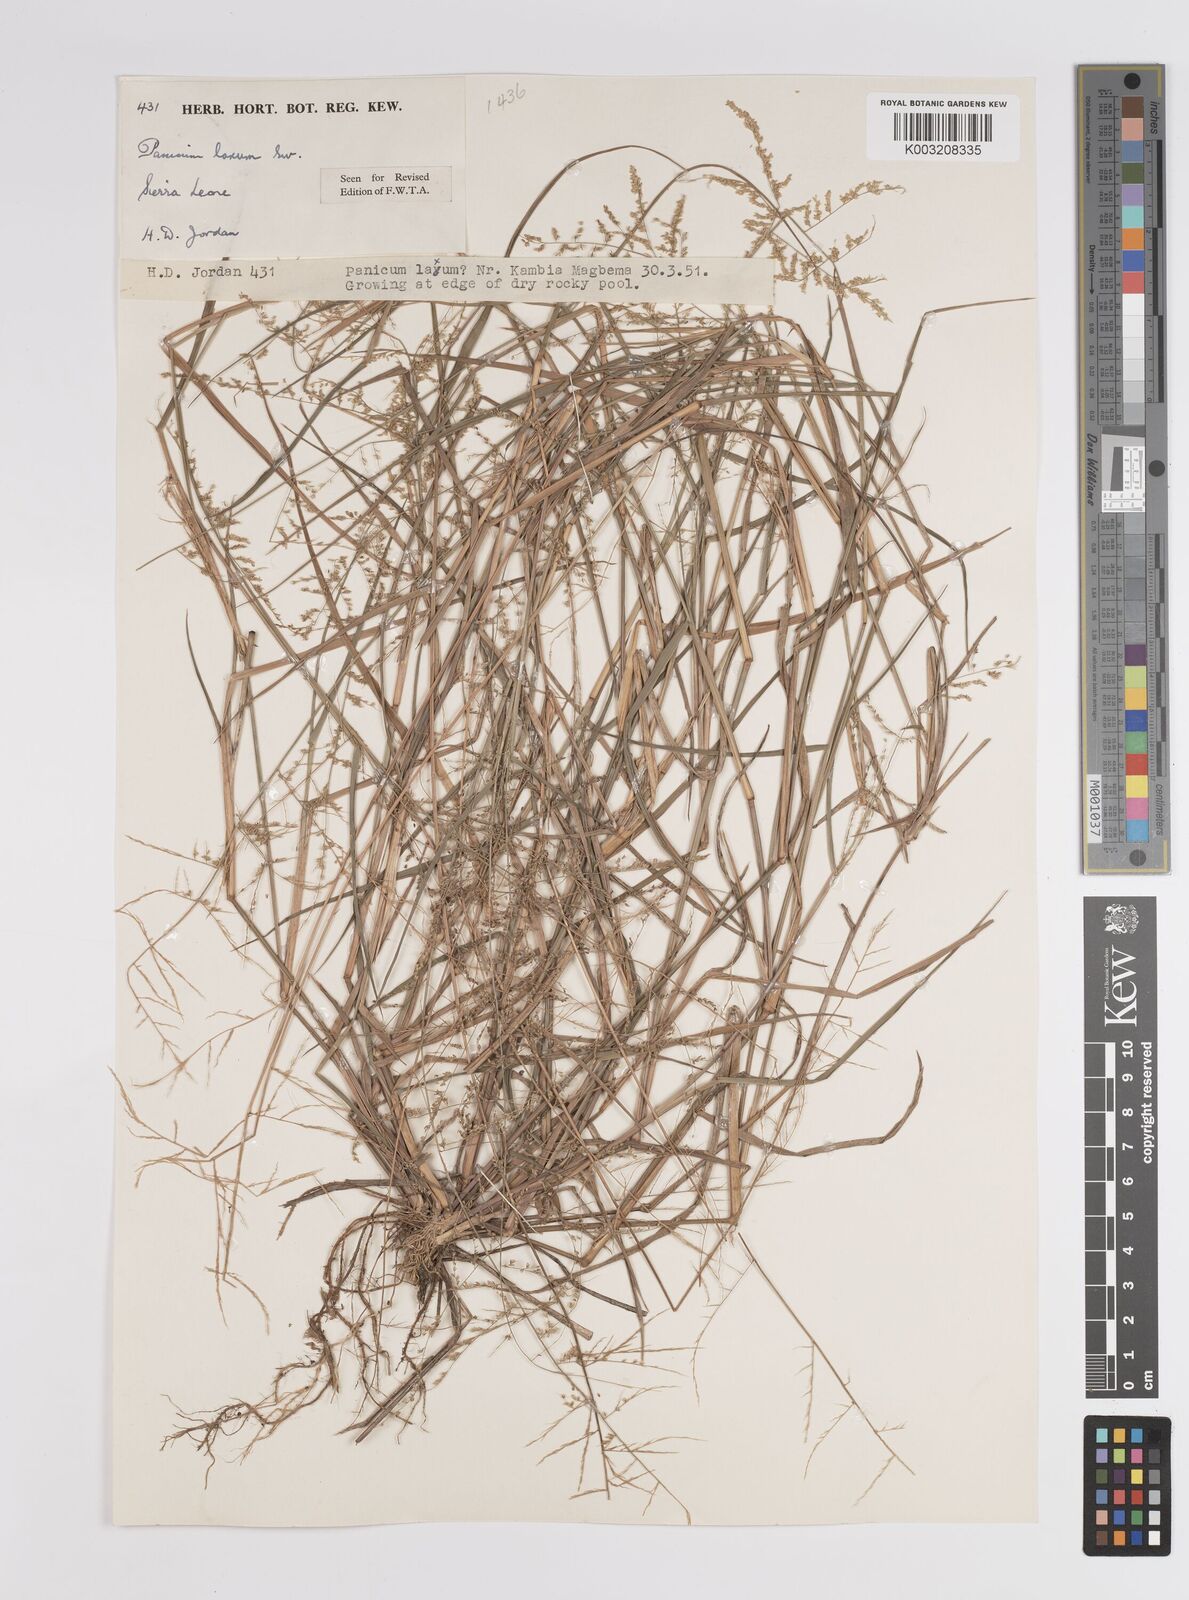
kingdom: Plantae
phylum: Tracheophyta
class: Liliopsida
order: Poales
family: Poaceae
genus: Steinchisma
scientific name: Steinchisma laxum
